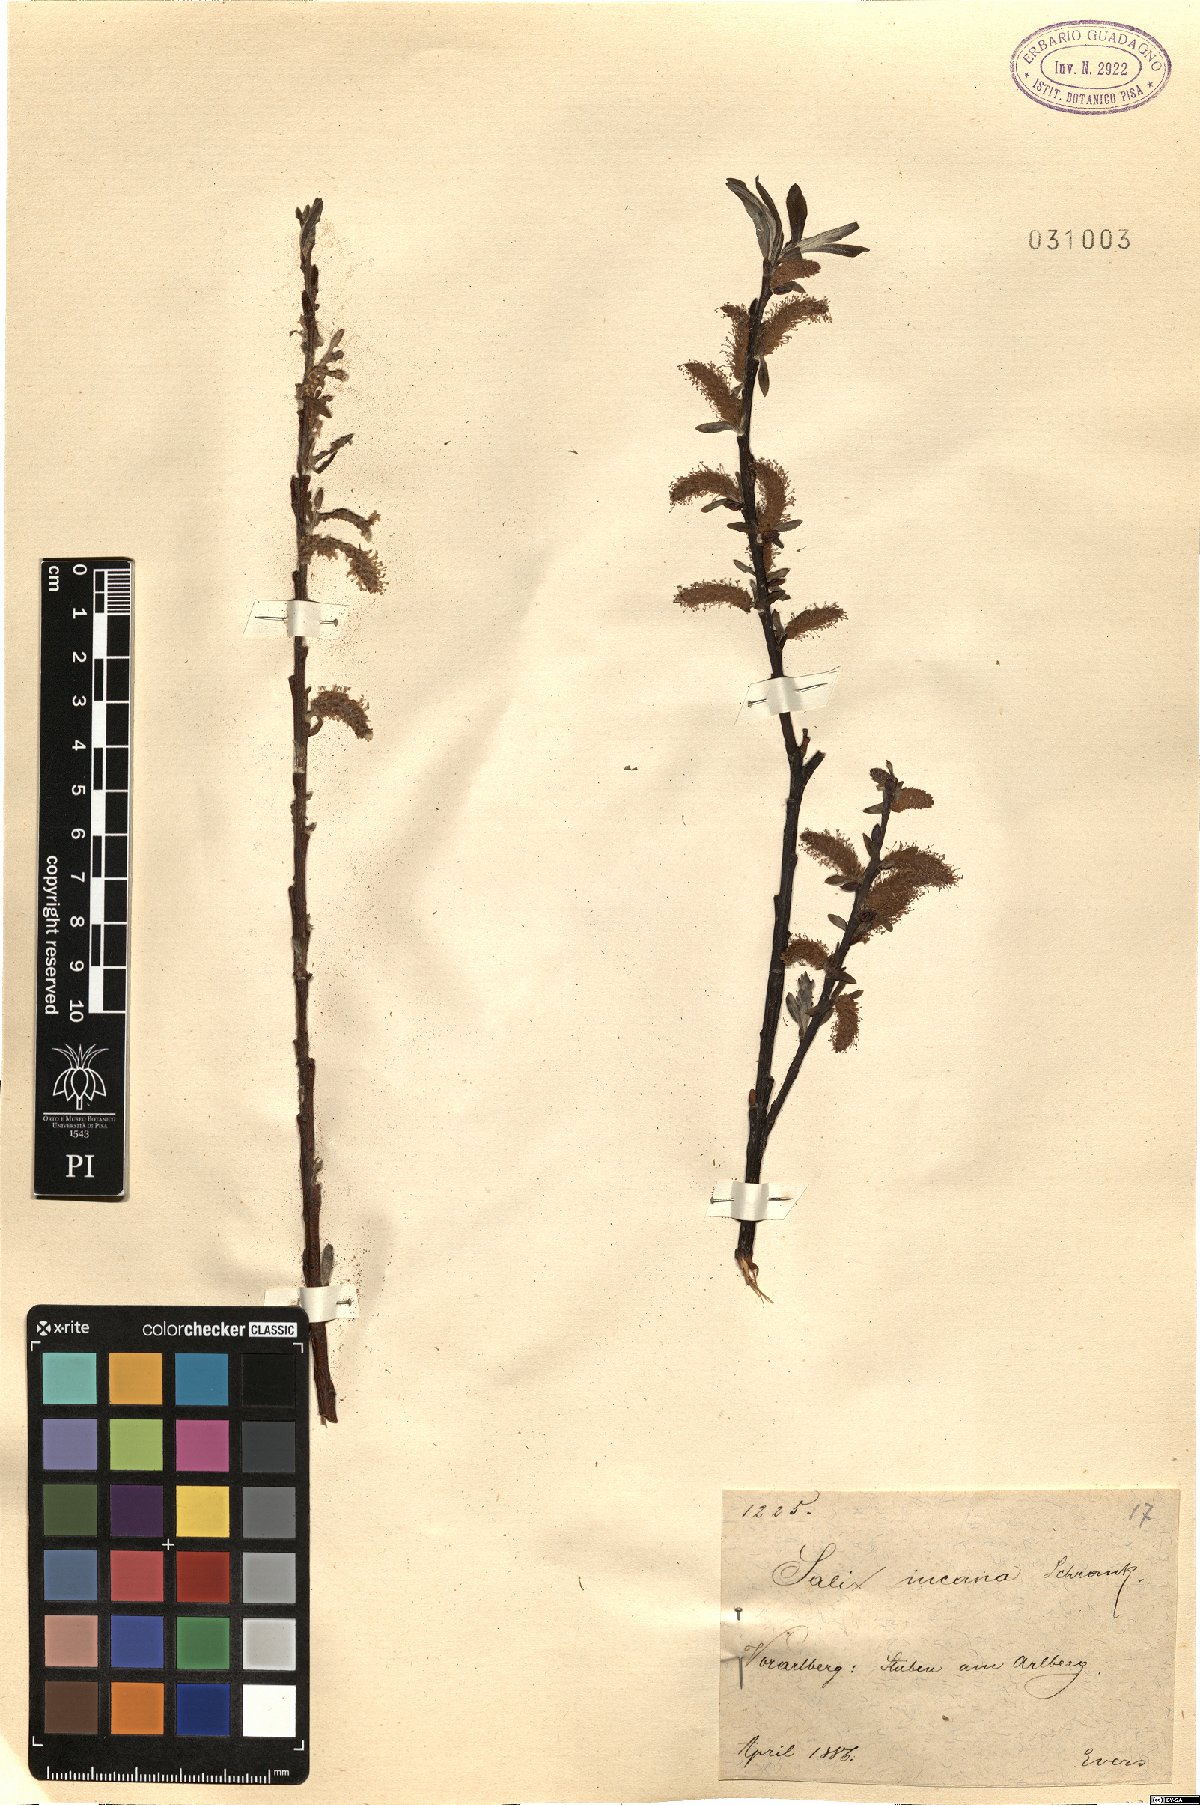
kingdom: Plantae
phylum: Tracheophyta
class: Magnoliopsida
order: Malpighiales
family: Salicaceae
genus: Salix
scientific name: Salix eleagnos
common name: Elaeagnus willow
